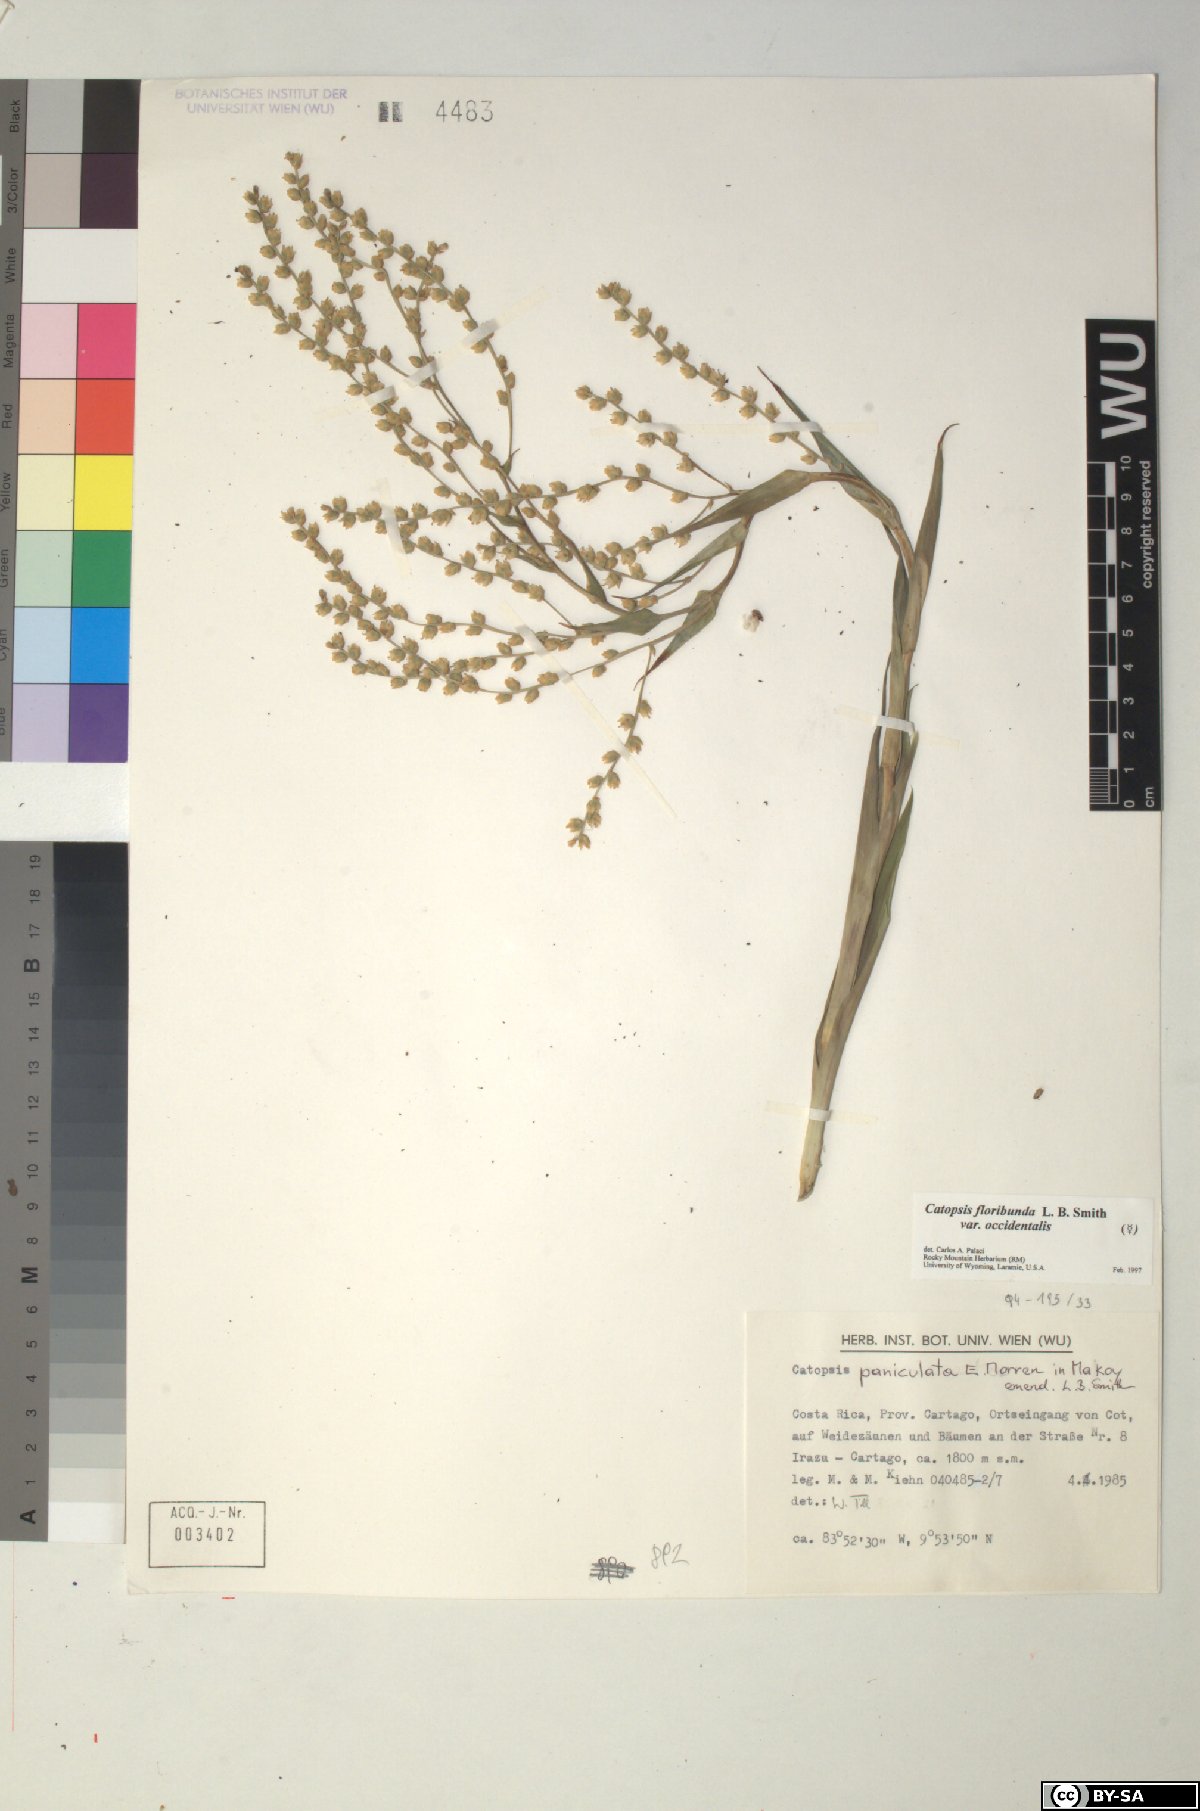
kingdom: Plantae
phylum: Tracheophyta
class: Liliopsida
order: Poales
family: Bromeliaceae
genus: Catopsis
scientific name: Catopsis floribunda
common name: Florida strap airplant
